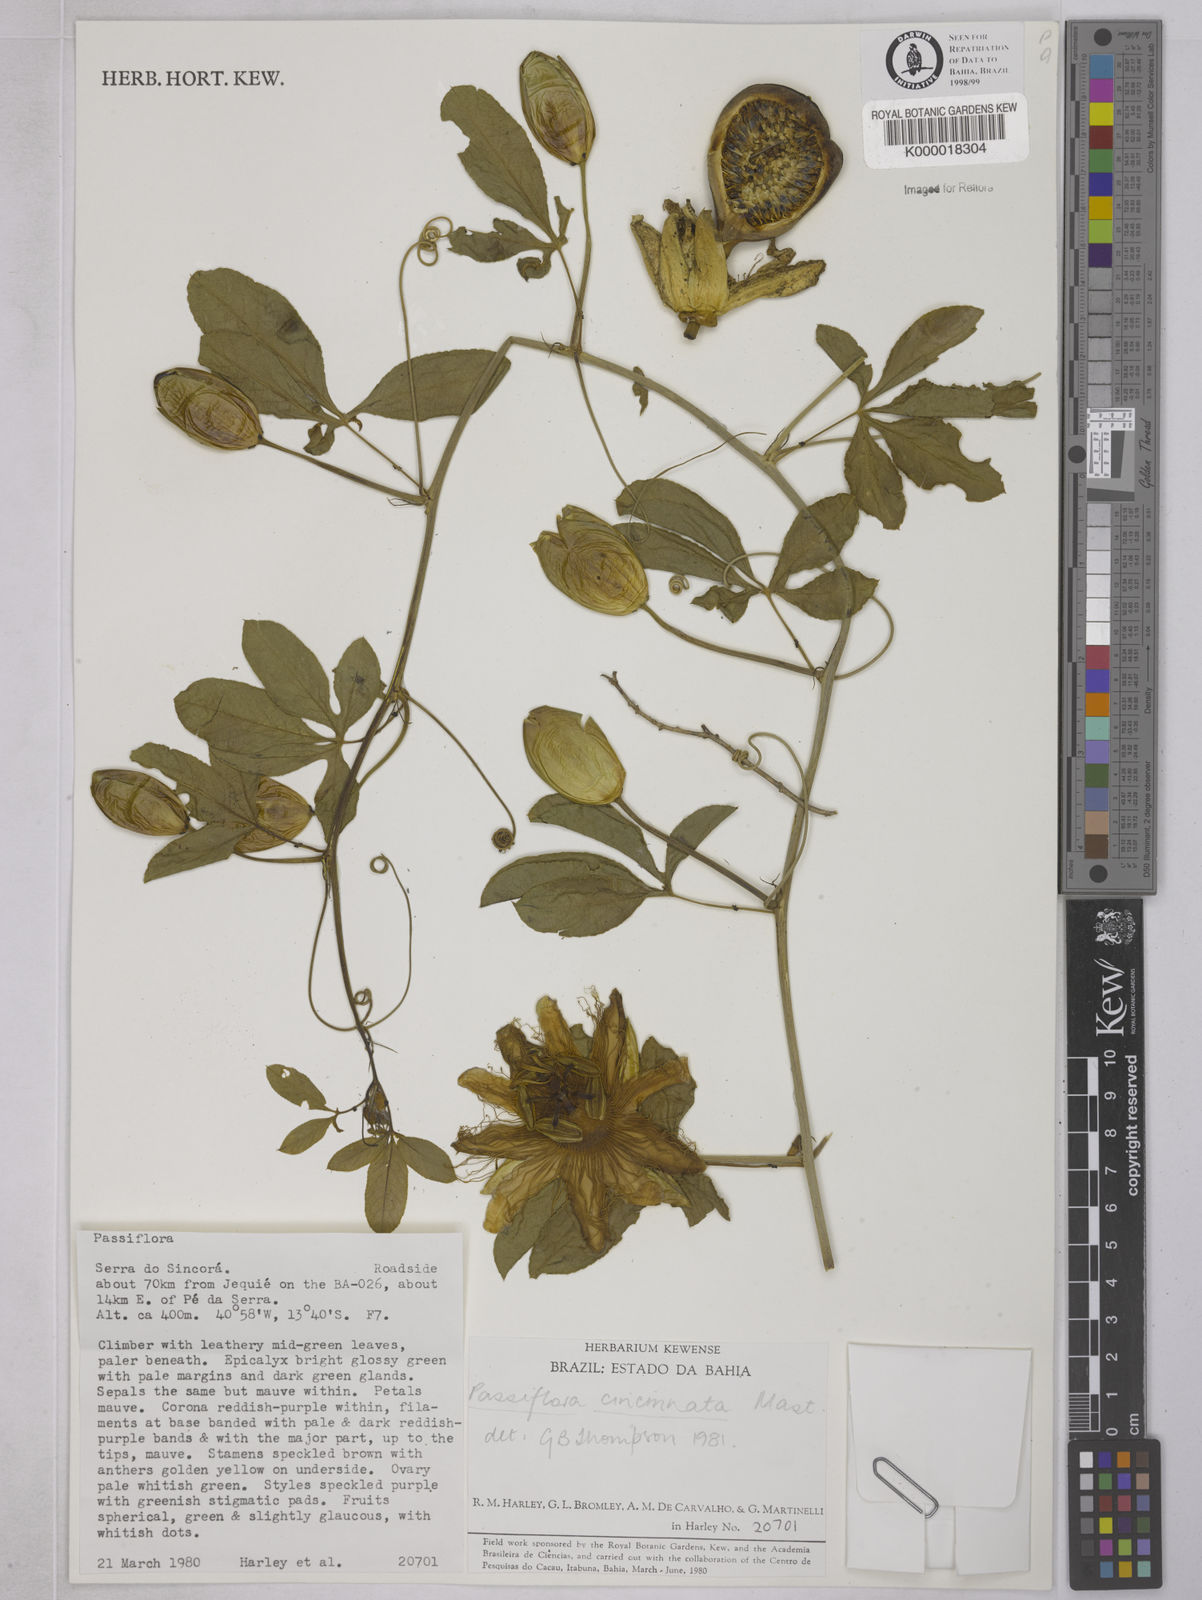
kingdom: Plantae
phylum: Tracheophyta
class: Magnoliopsida
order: Malpighiales
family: Passifloraceae
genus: Passiflora
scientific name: Passiflora cincinnata
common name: Crato passionvine
